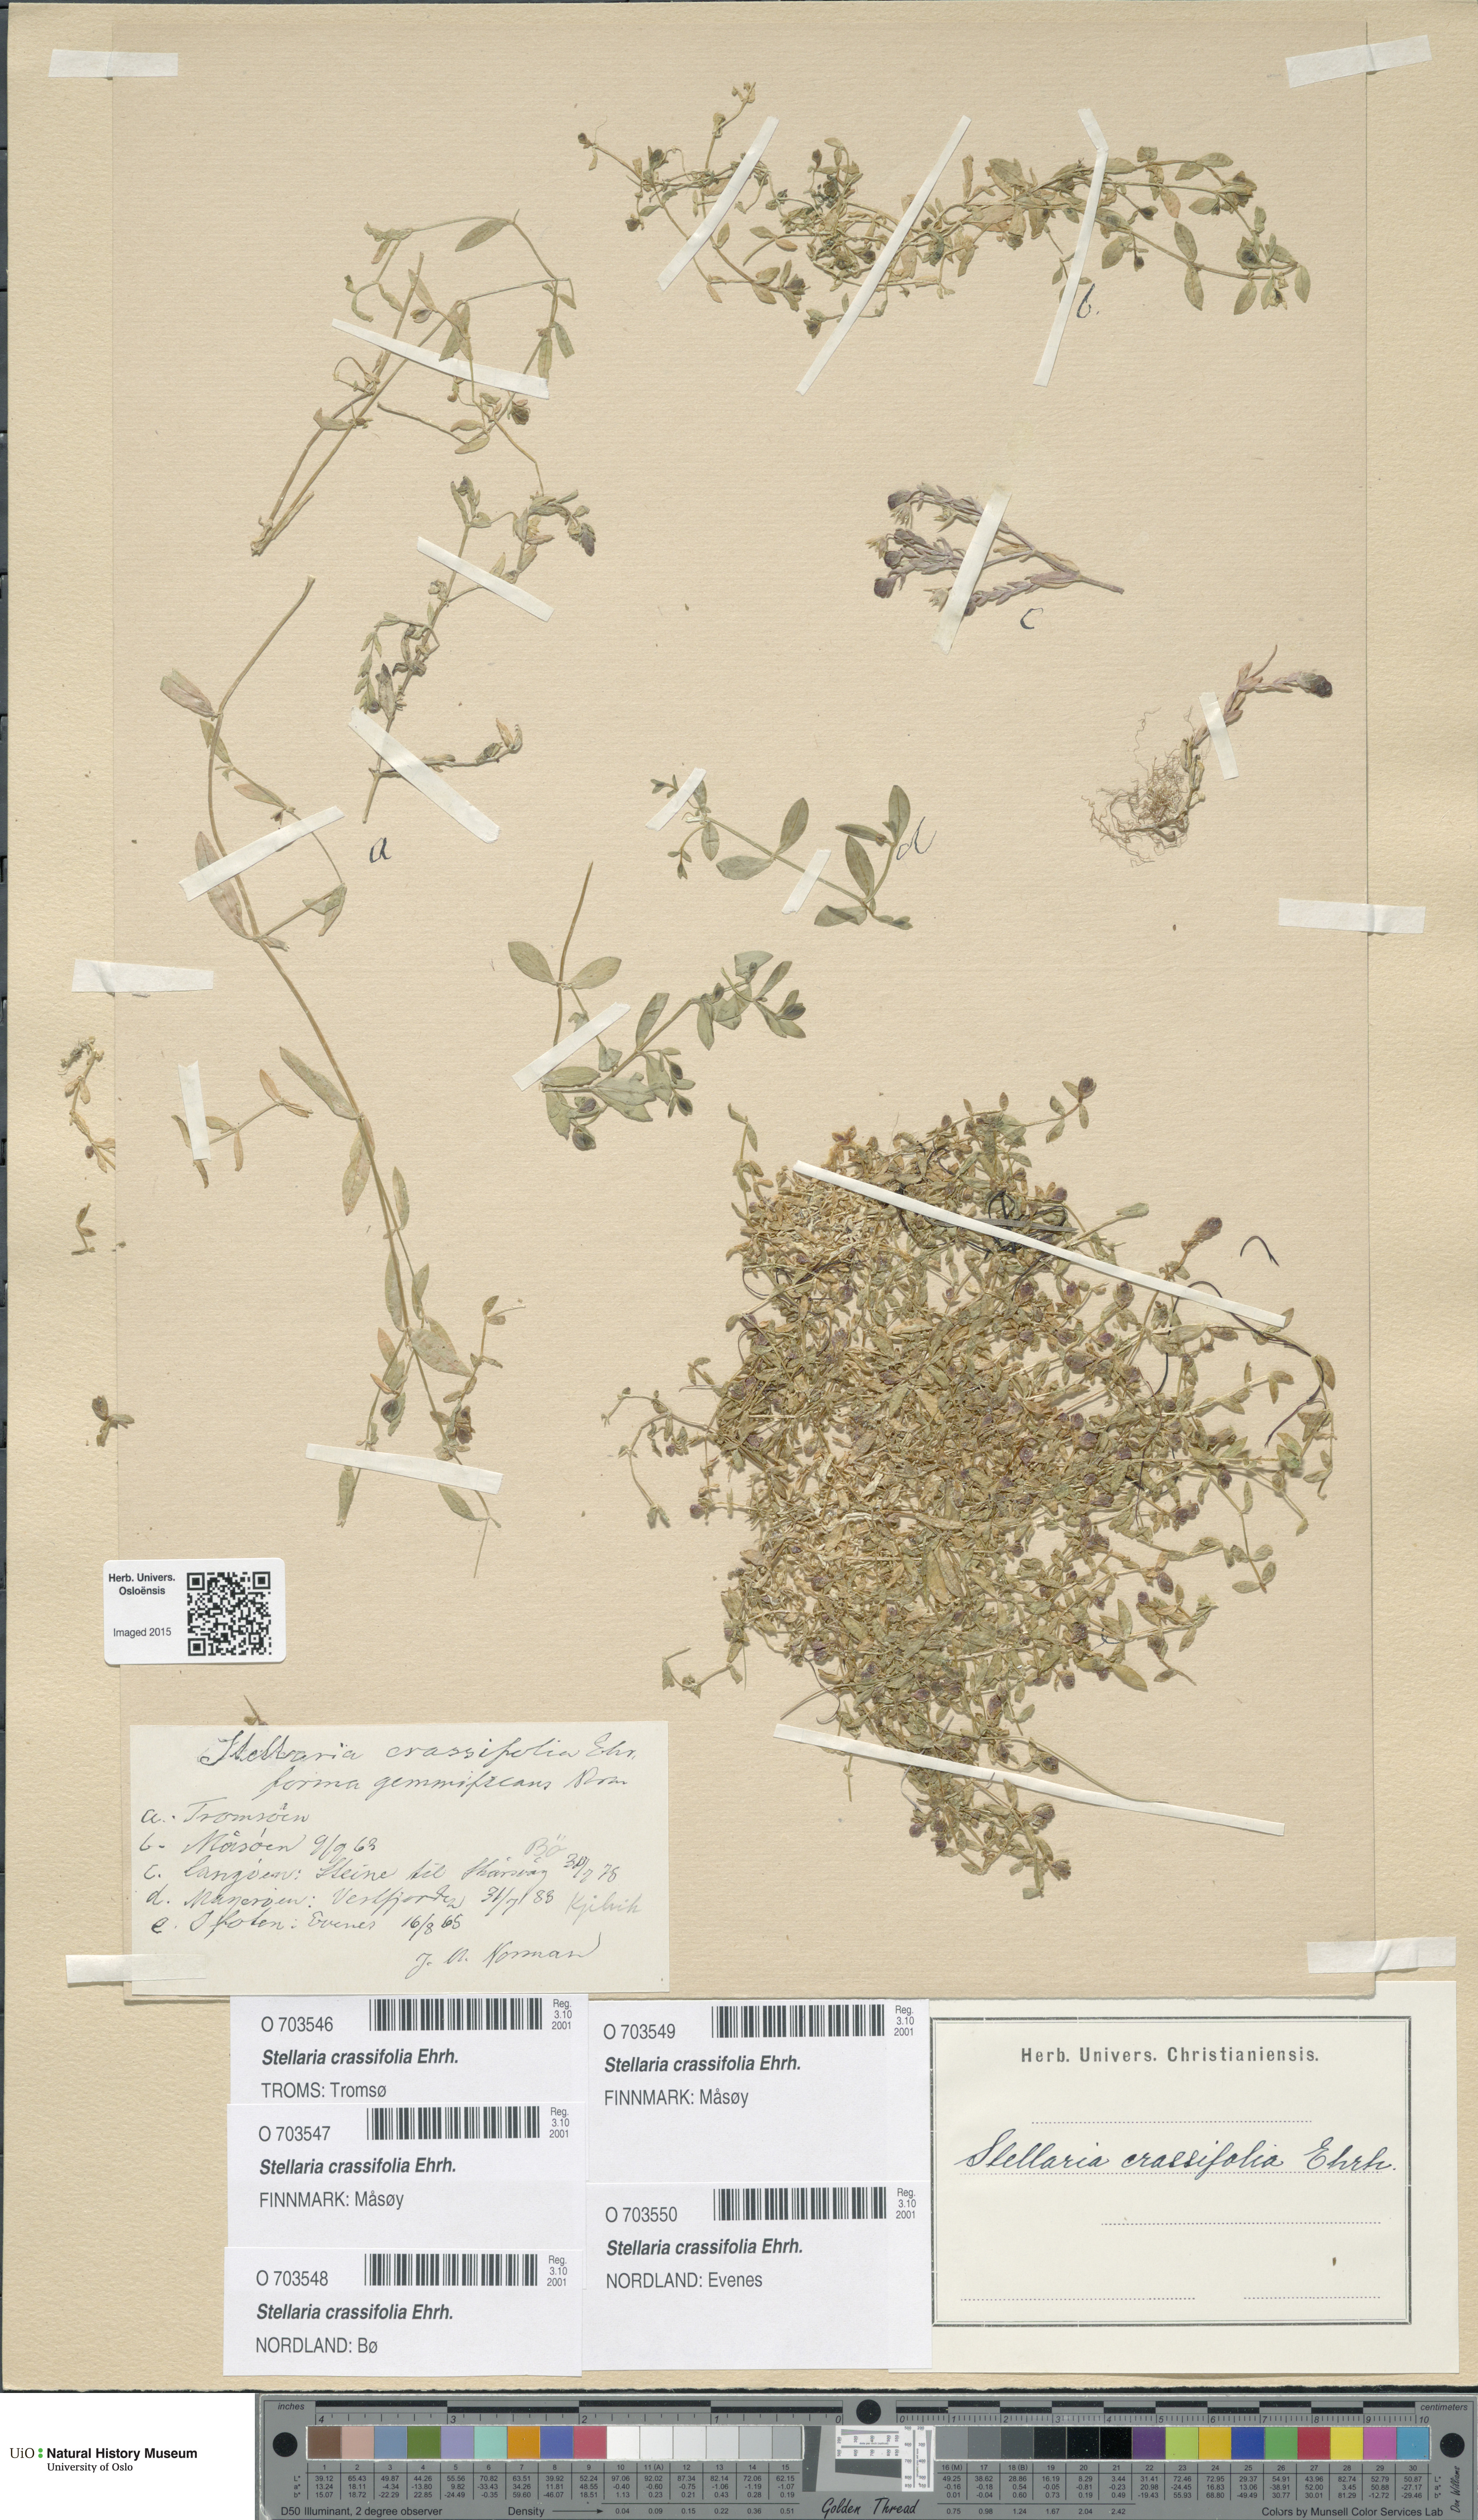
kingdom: Plantae
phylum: Tracheophyta
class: Magnoliopsida
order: Caryophyllales
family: Caryophyllaceae
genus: Stellaria
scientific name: Stellaria crassifolia
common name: Fleshy starwort
